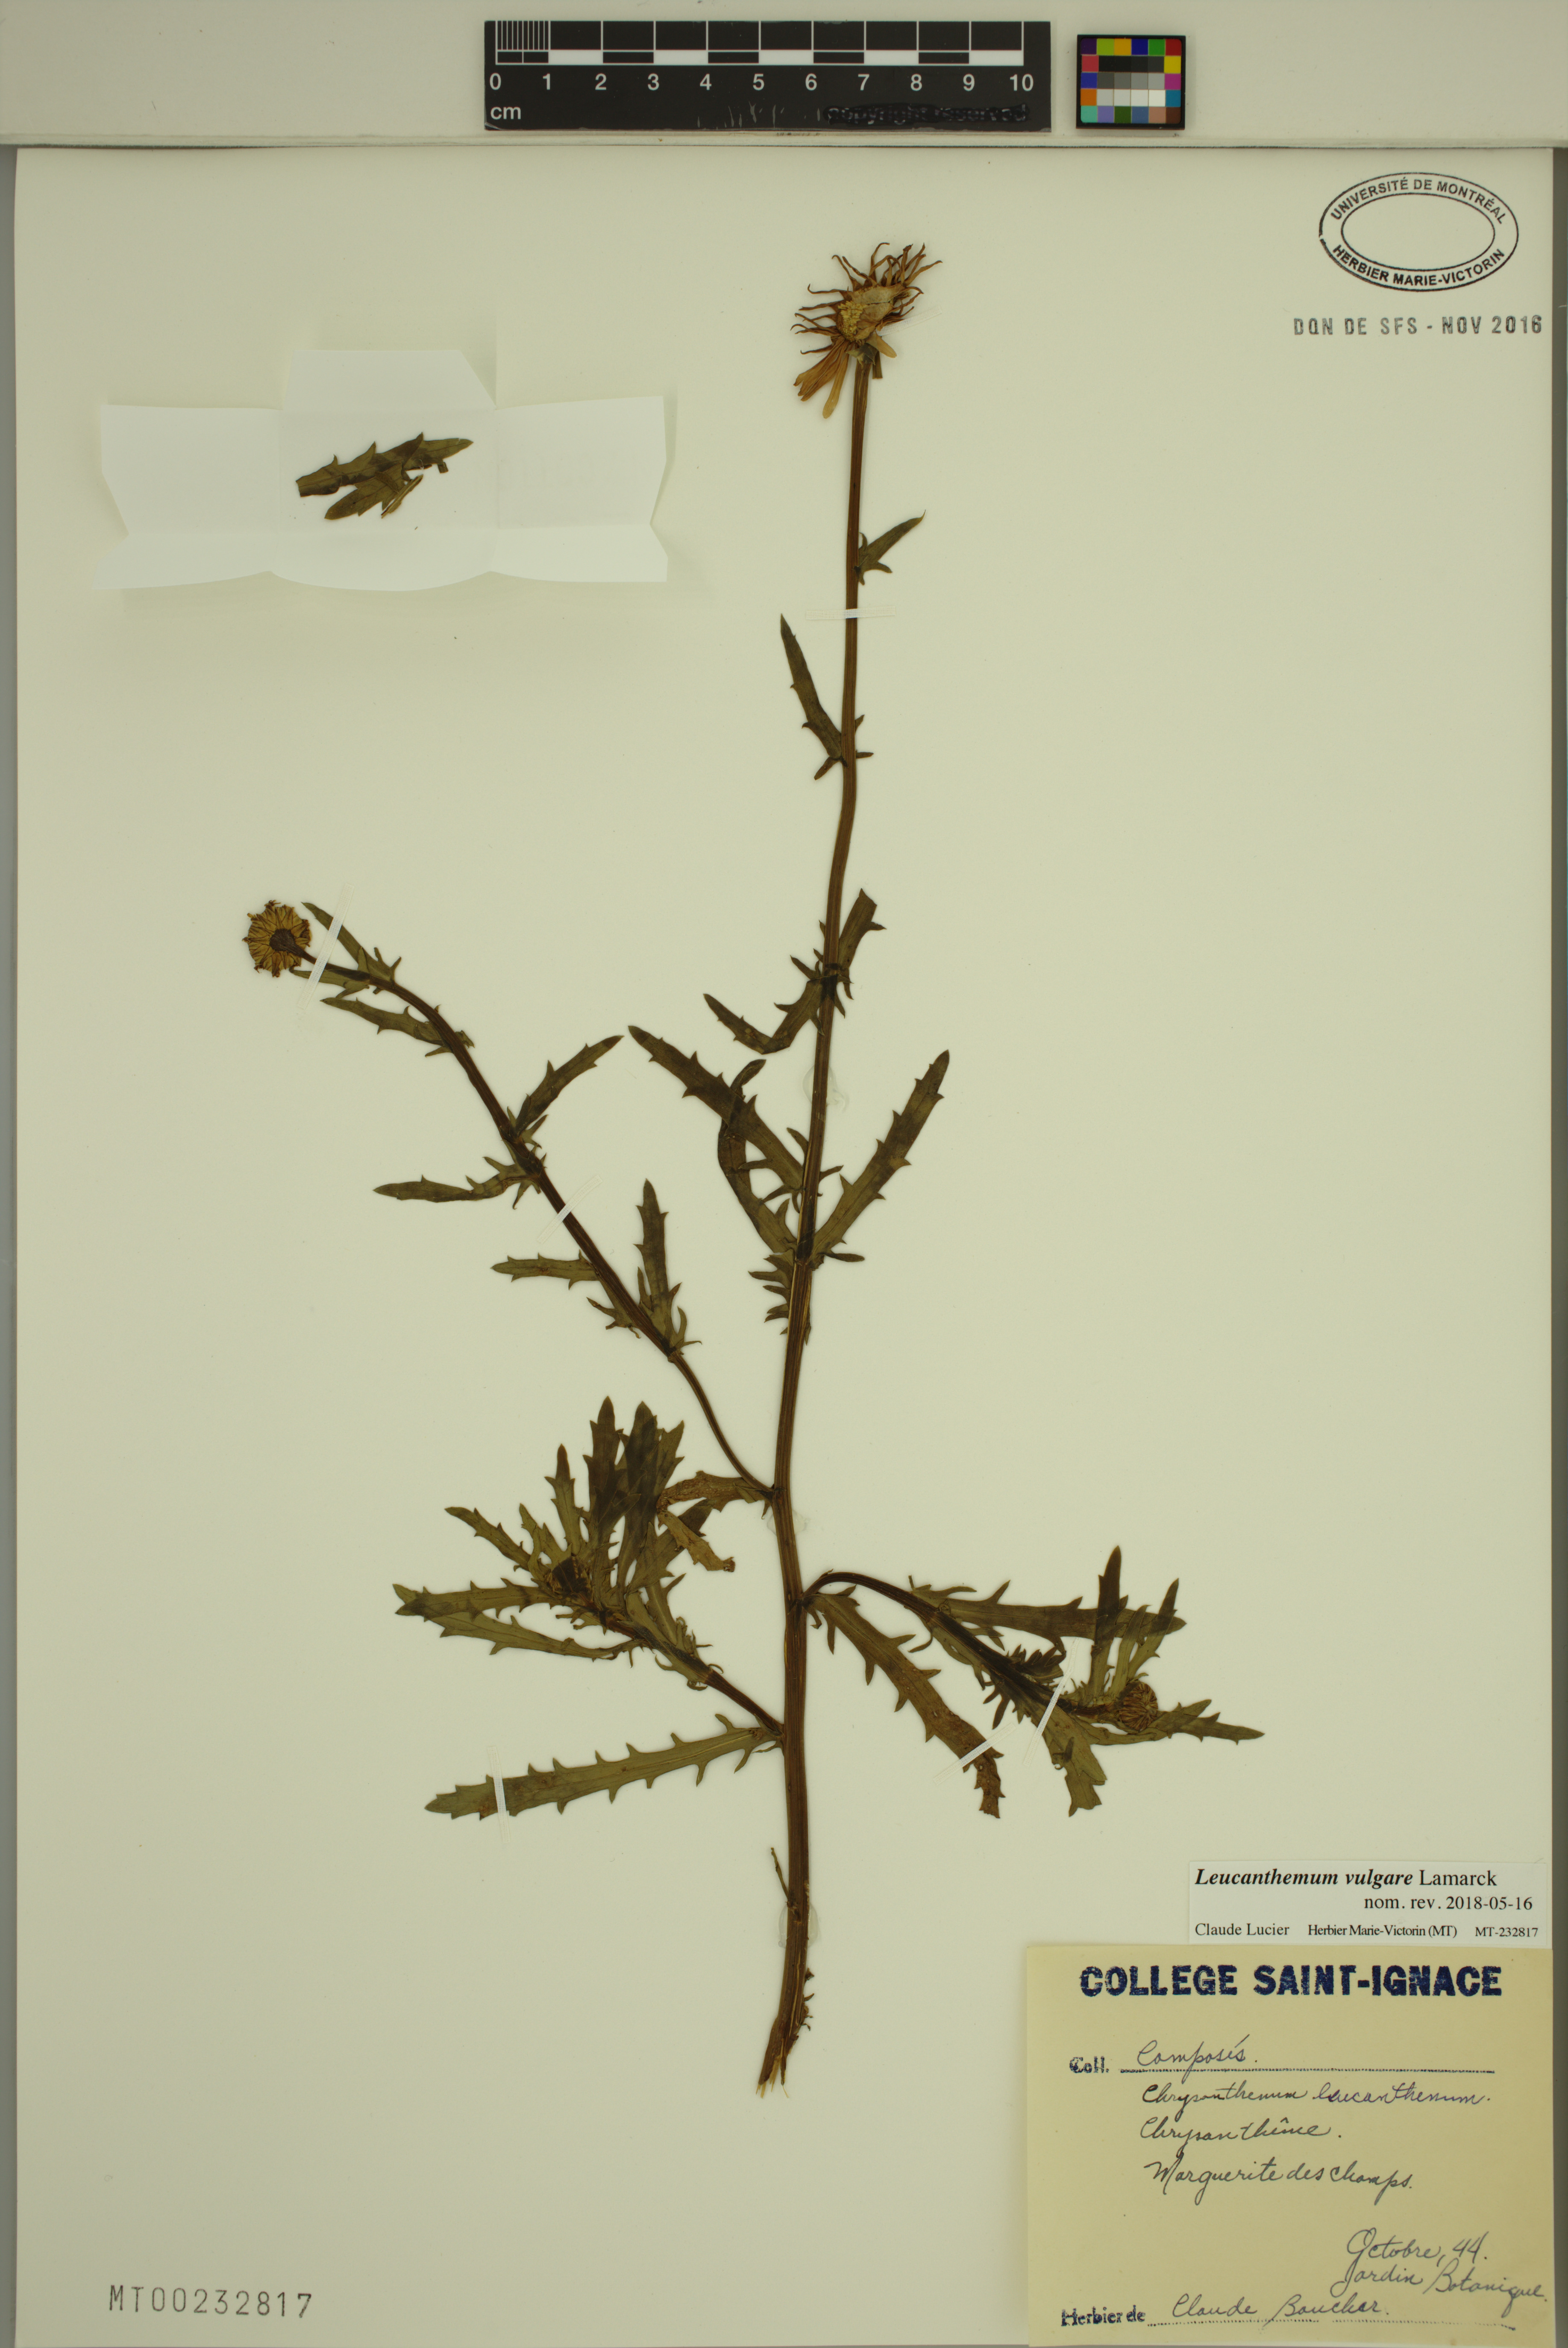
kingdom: Plantae
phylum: Tracheophyta
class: Magnoliopsida
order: Asterales
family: Asteraceae
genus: Leucanthemum
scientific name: Leucanthemum vulgare
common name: Oxeye daisy
